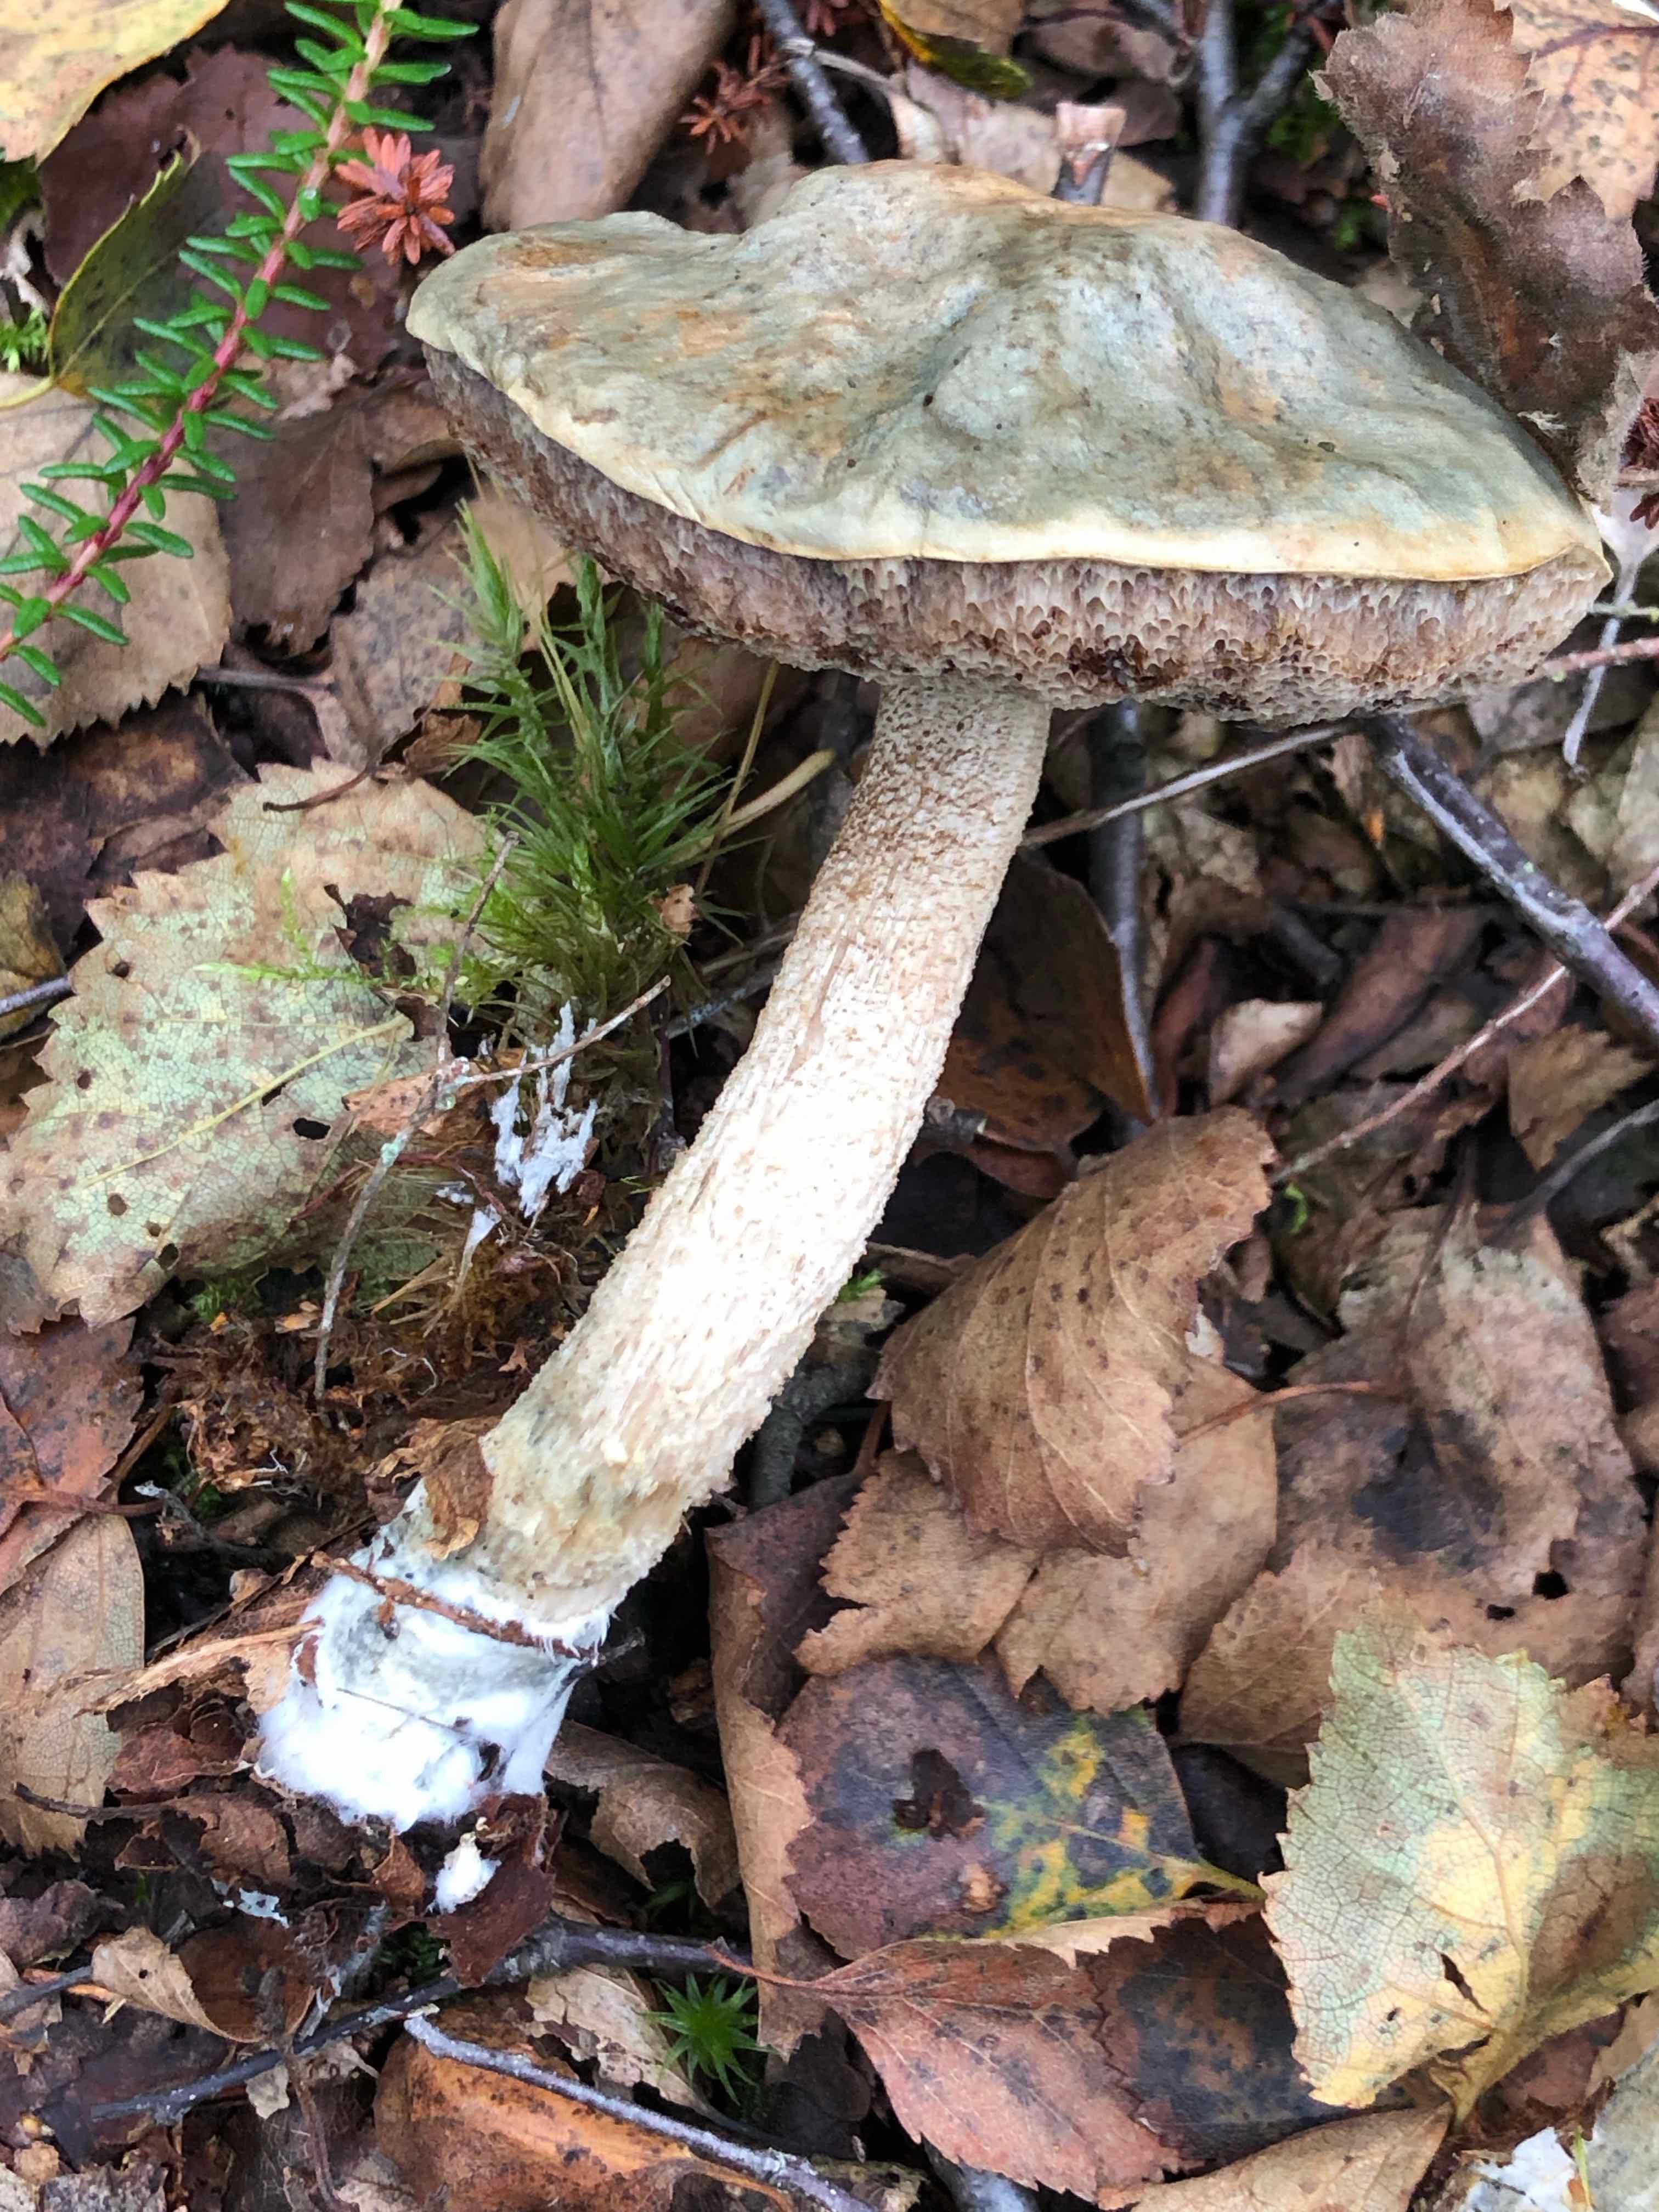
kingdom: Fungi
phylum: Basidiomycota
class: Agaricomycetes
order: Boletales
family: Boletaceae
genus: Leccinum
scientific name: Leccinum scabrum
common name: hvid skælrørhat
